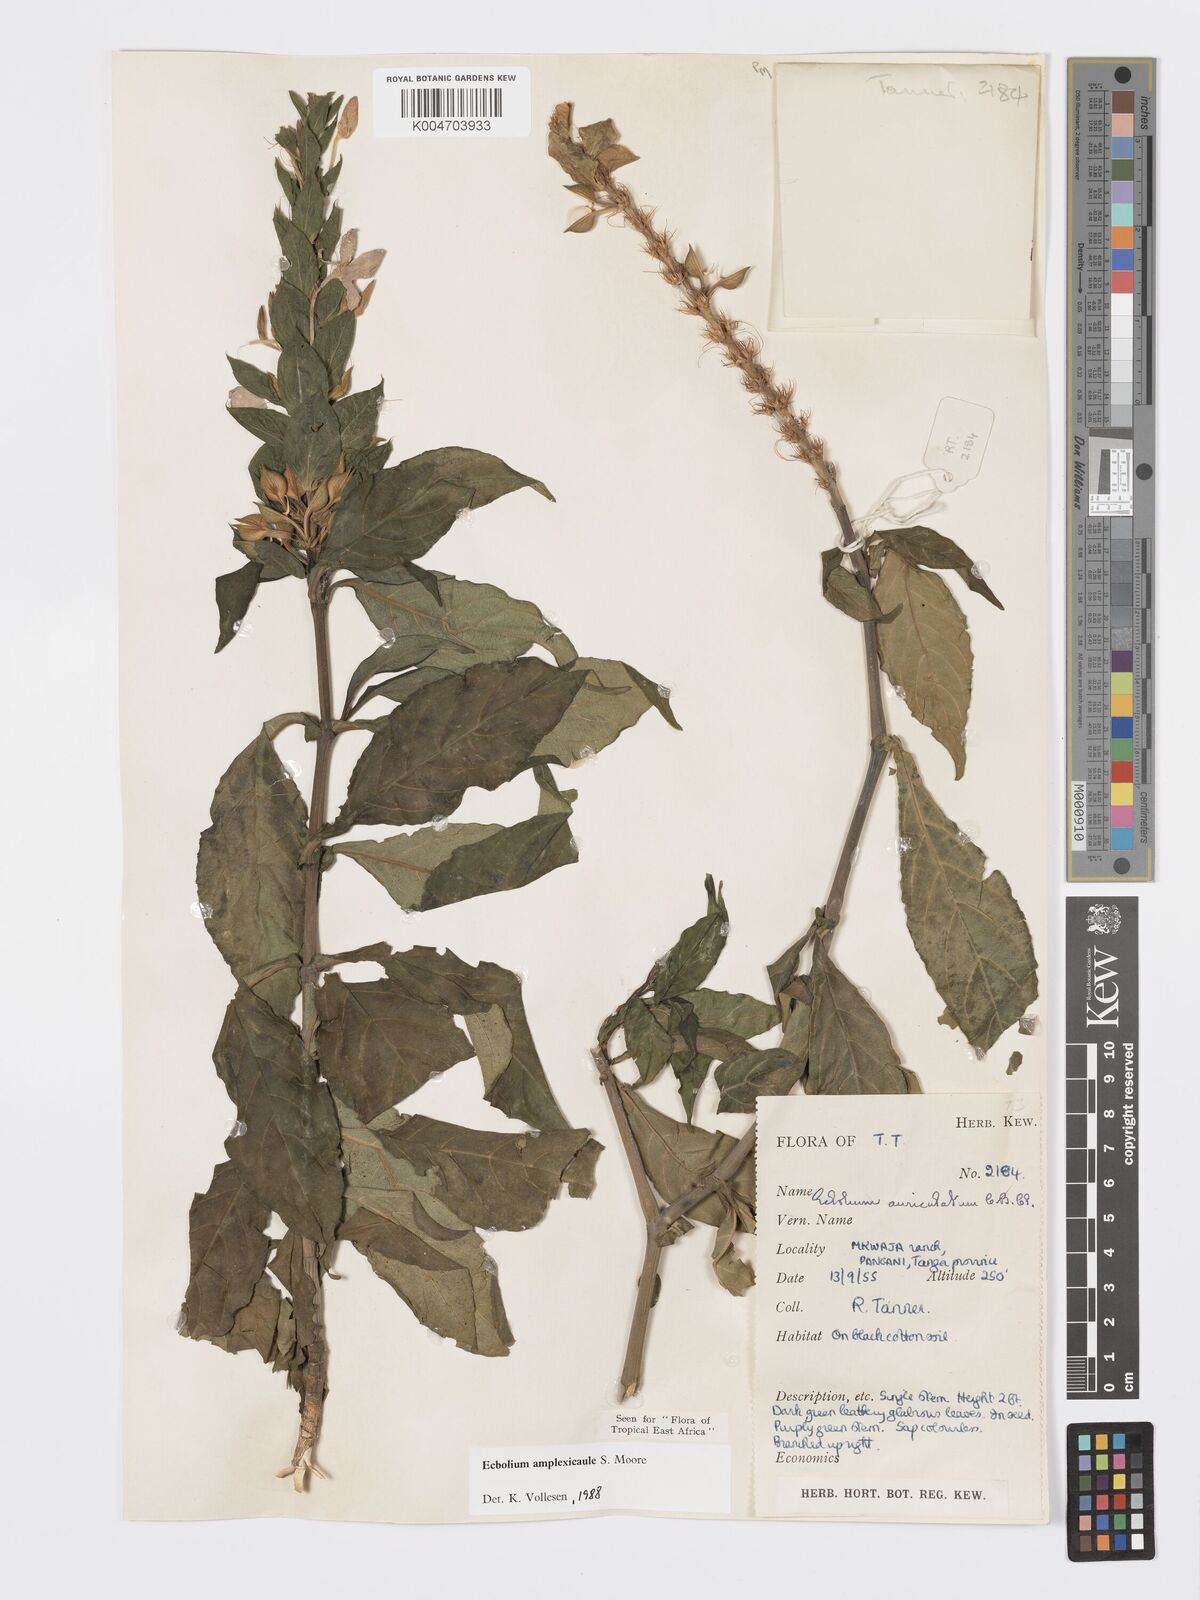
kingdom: Plantae
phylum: Tracheophyta
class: Magnoliopsida
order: Lamiales
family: Acanthaceae
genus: Ecbolium
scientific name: Ecbolium amplexicaule
